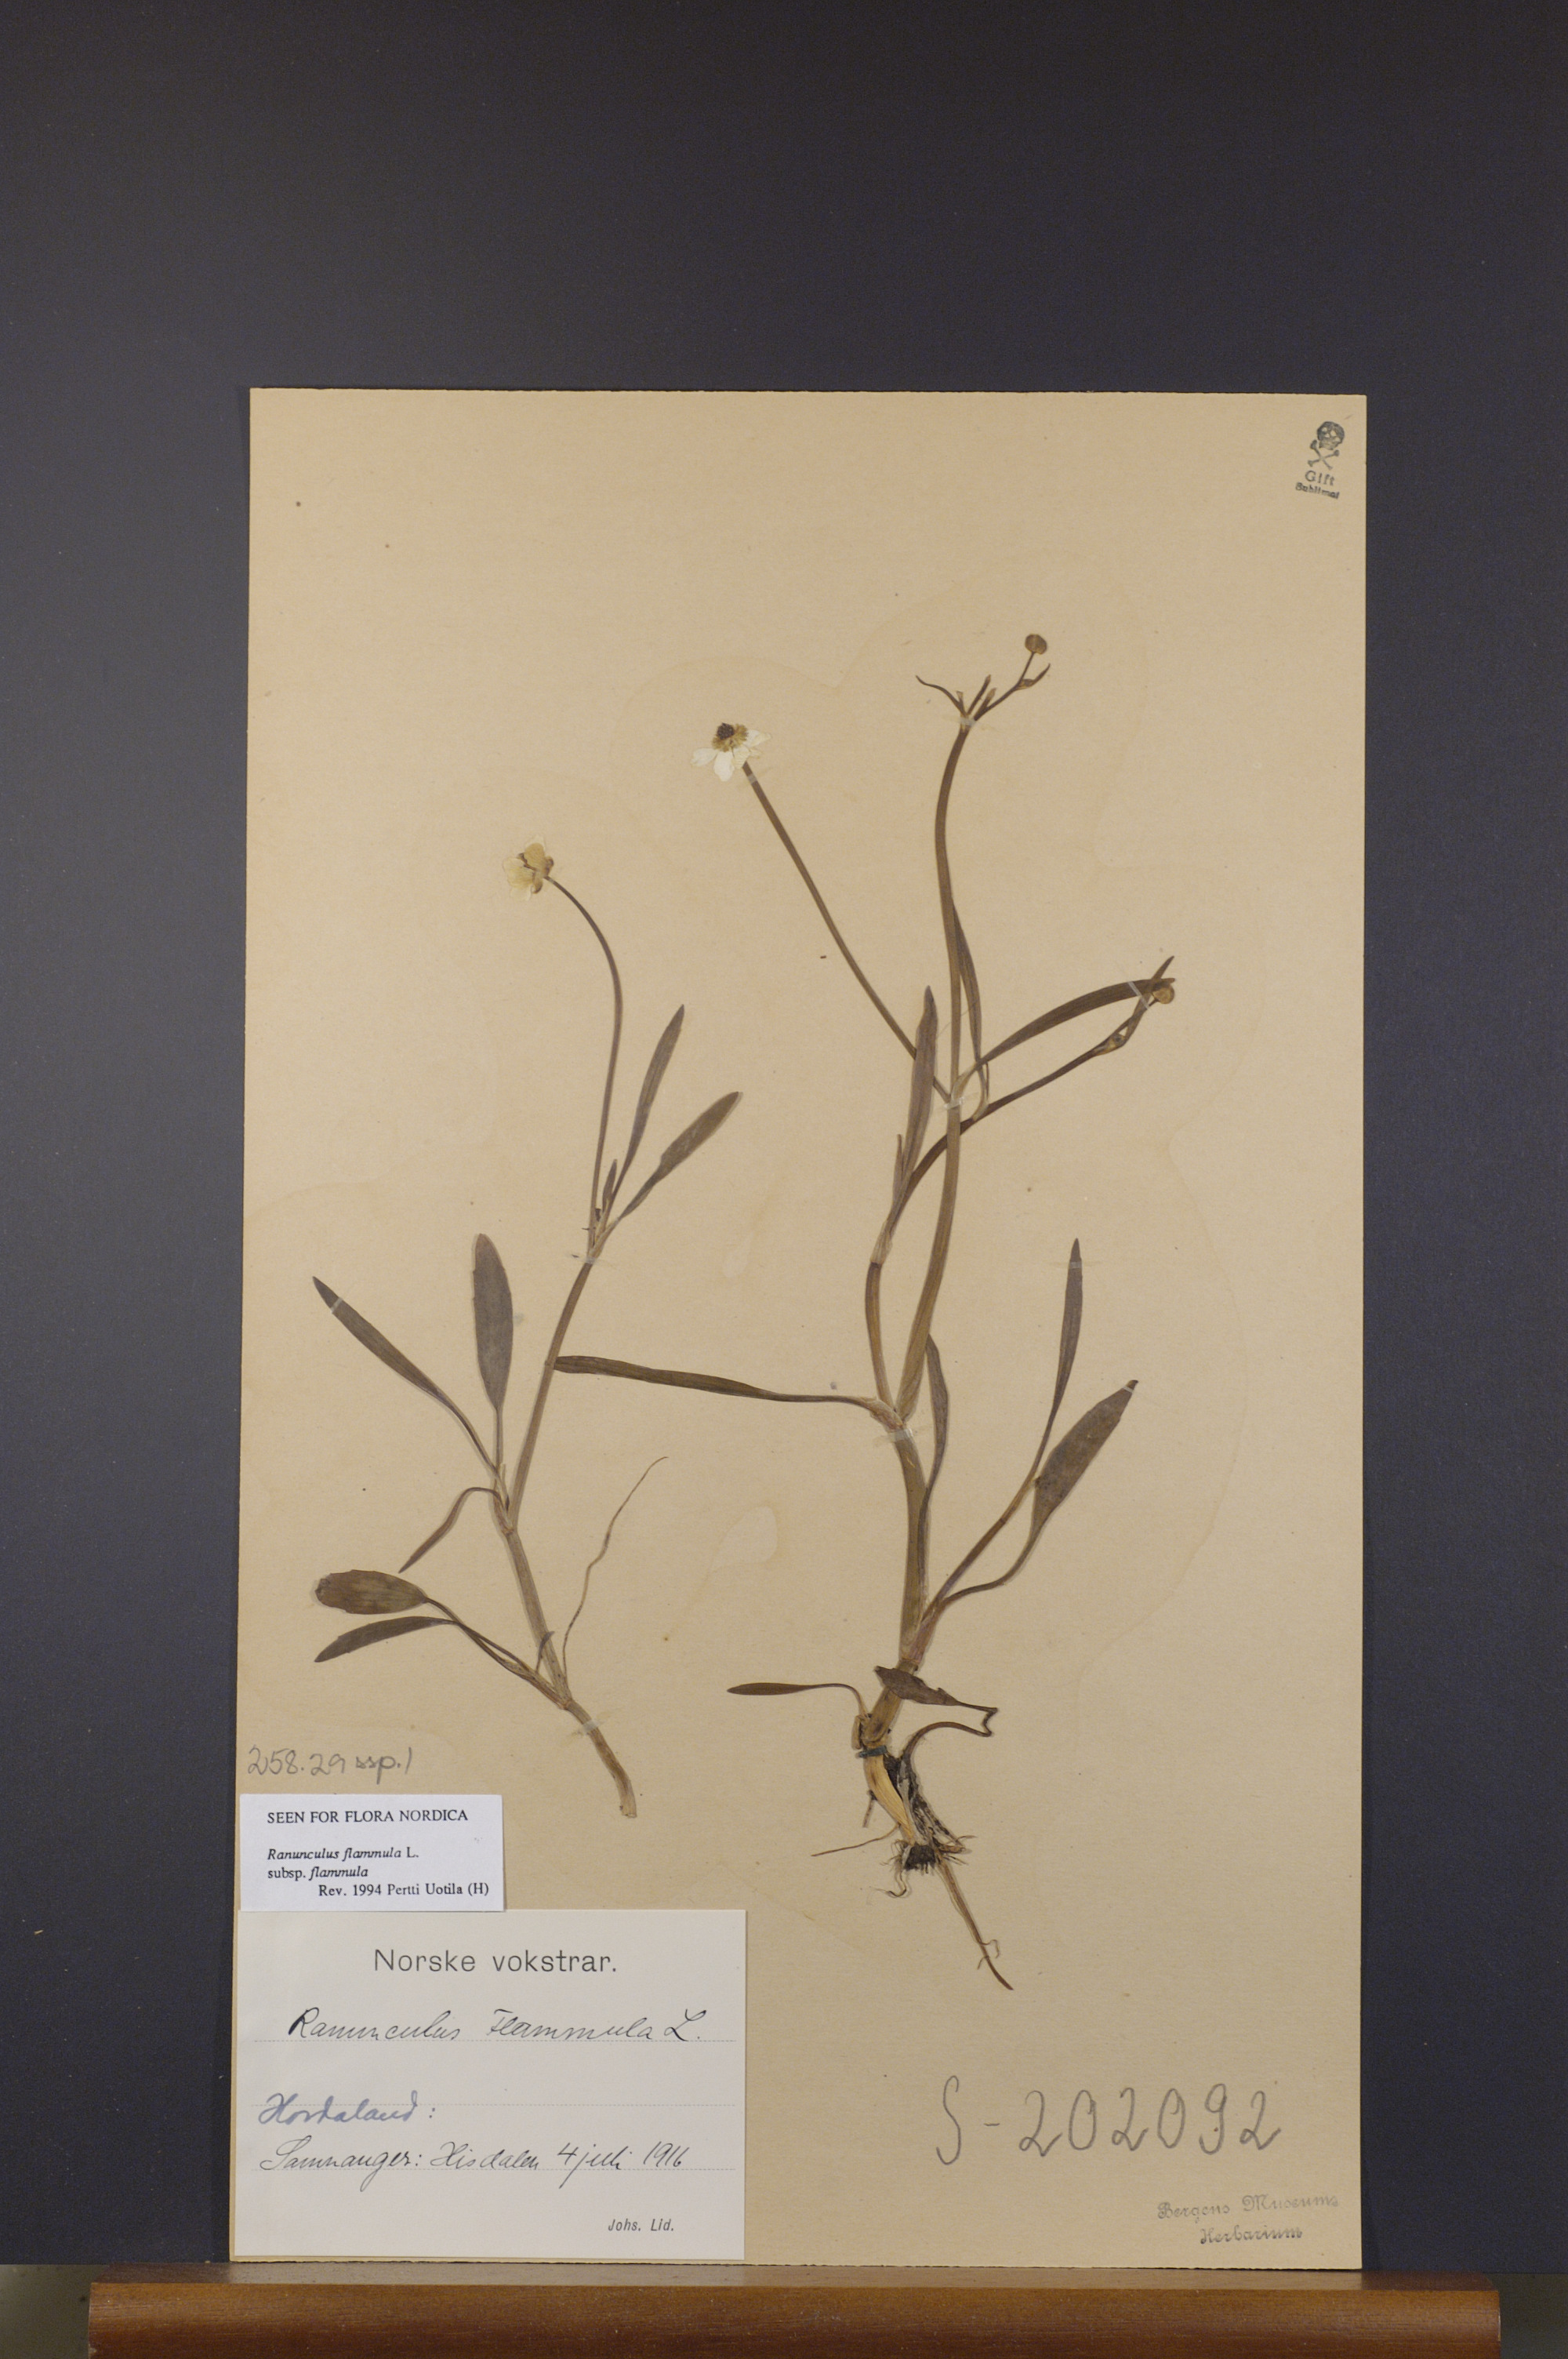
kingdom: Plantae
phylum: Tracheophyta
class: Magnoliopsida
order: Ranunculales
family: Ranunculaceae
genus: Ranunculus
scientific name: Ranunculus flammula
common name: Lesser spearwort
